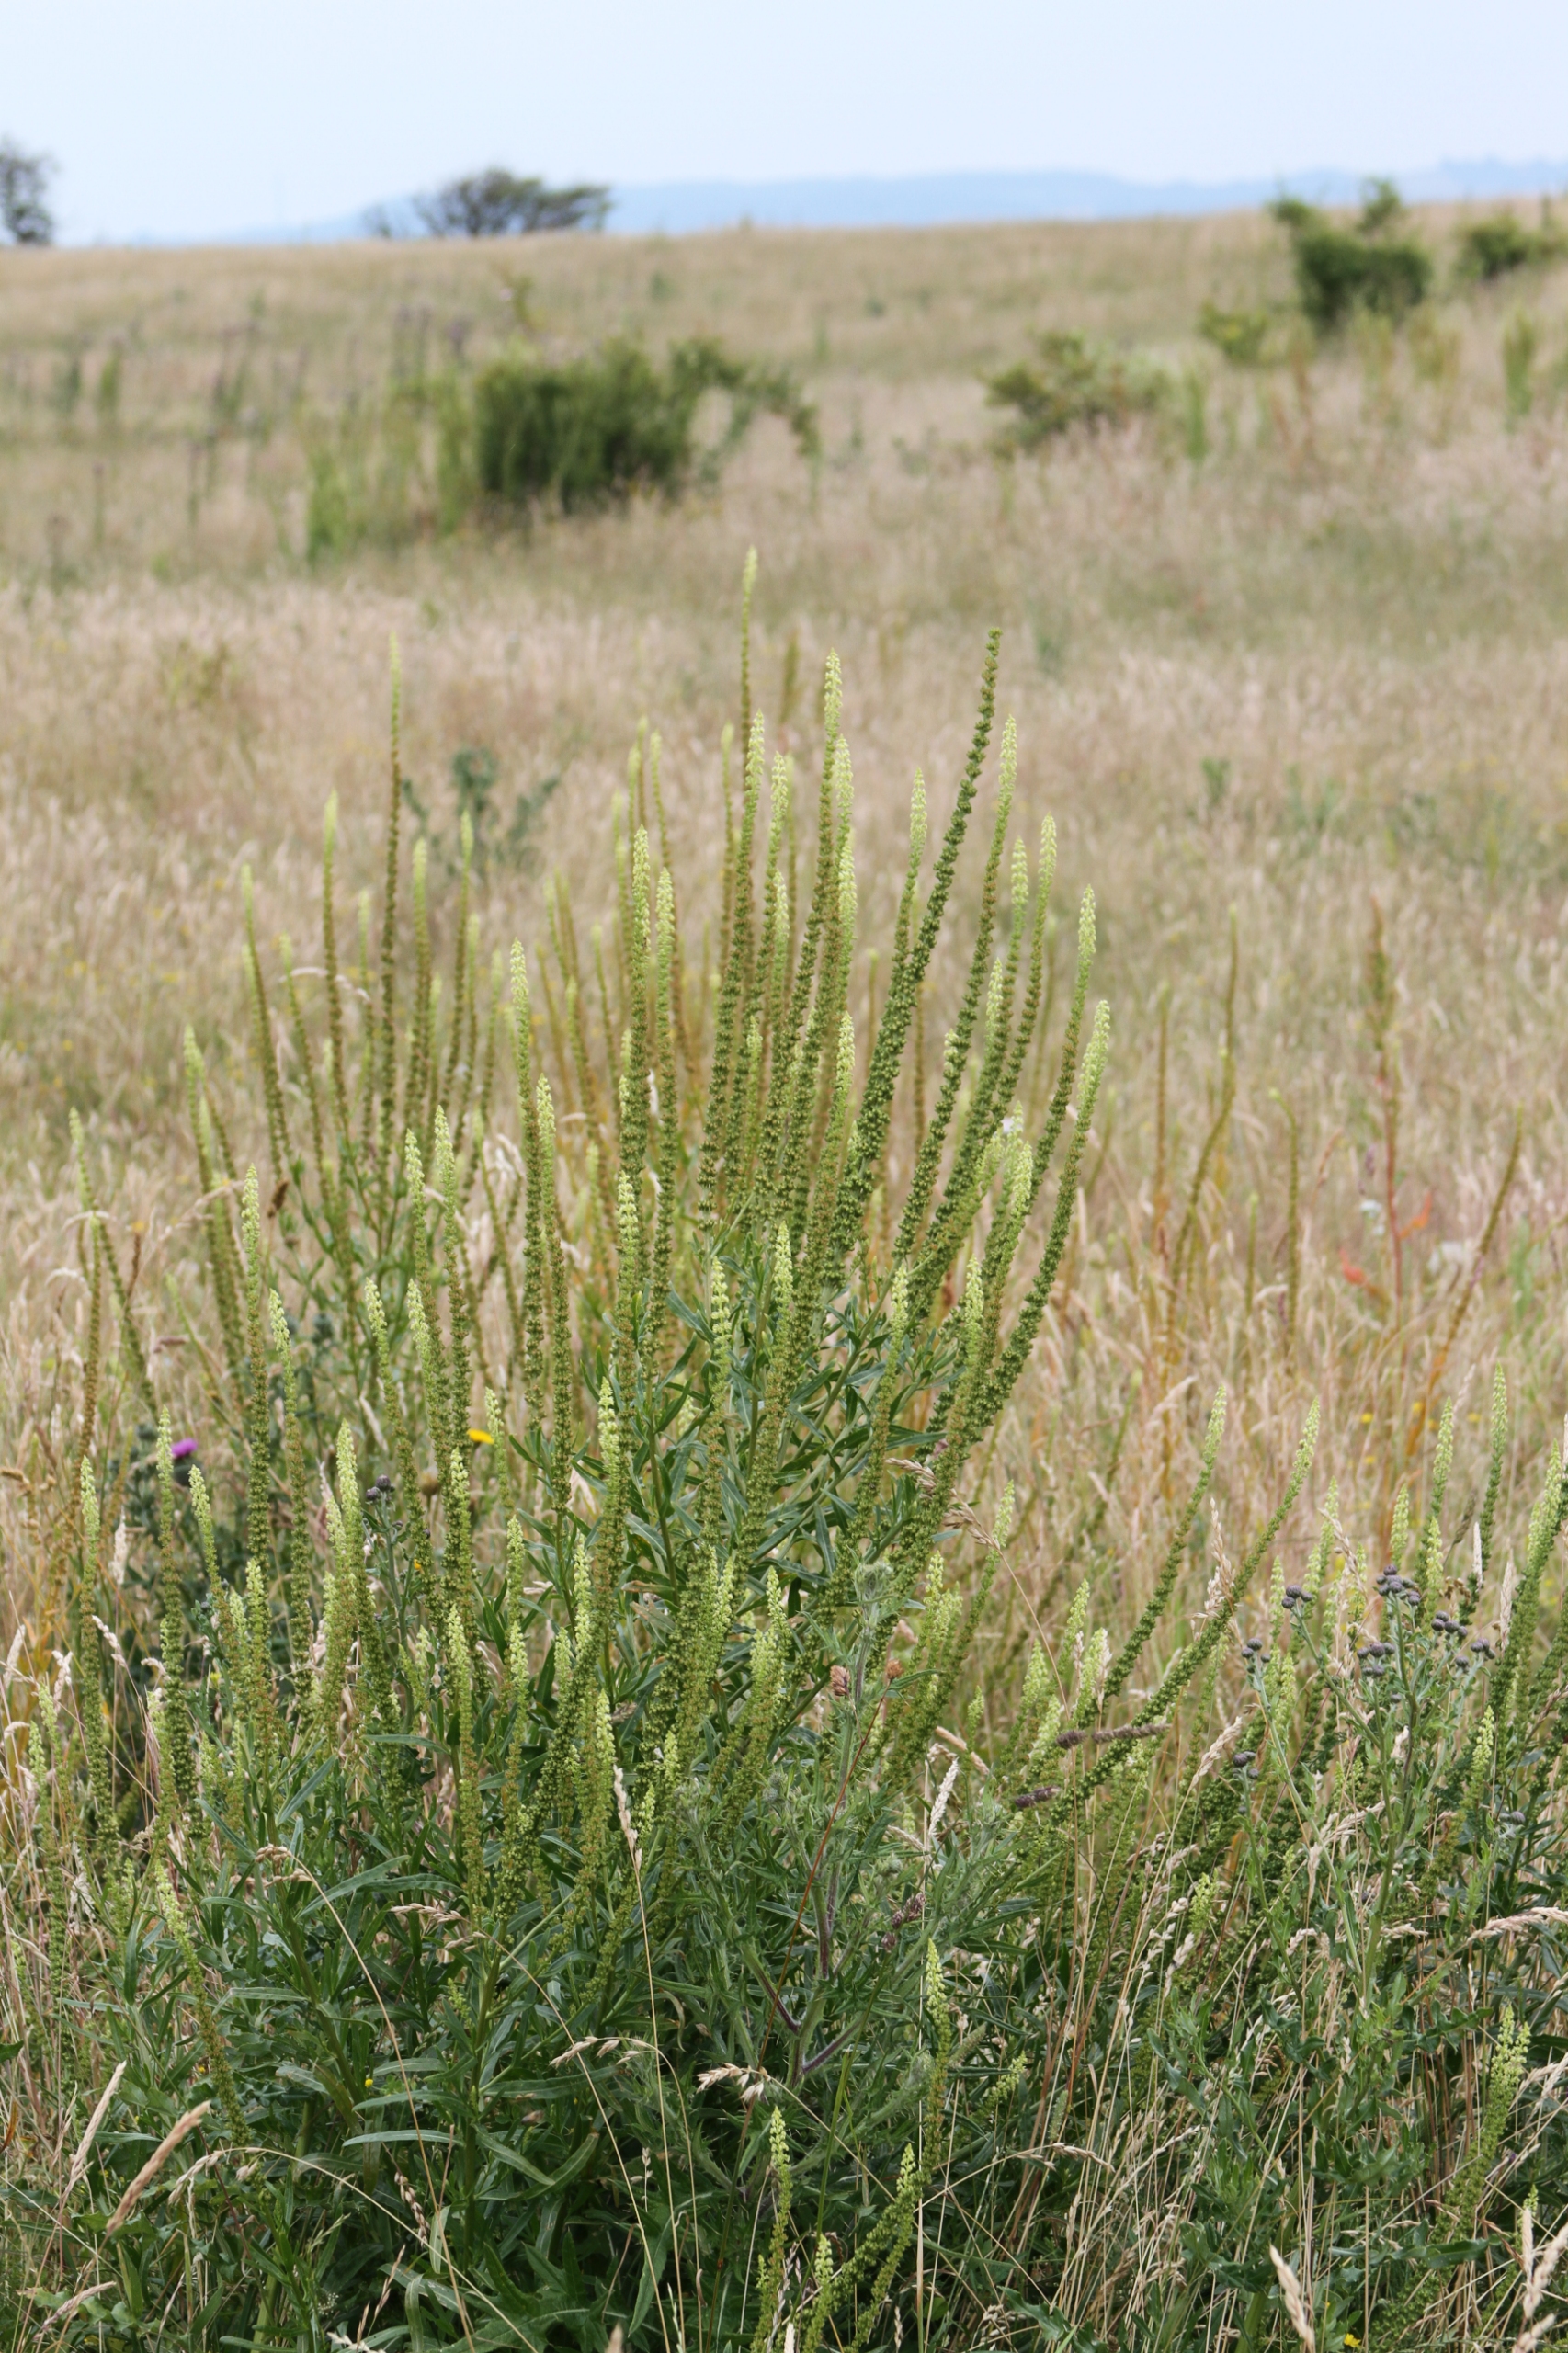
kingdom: Plantae
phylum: Tracheophyta
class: Magnoliopsida
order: Brassicales
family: Resedaceae
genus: Reseda
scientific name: Reseda luteola
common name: Farve-reseda
